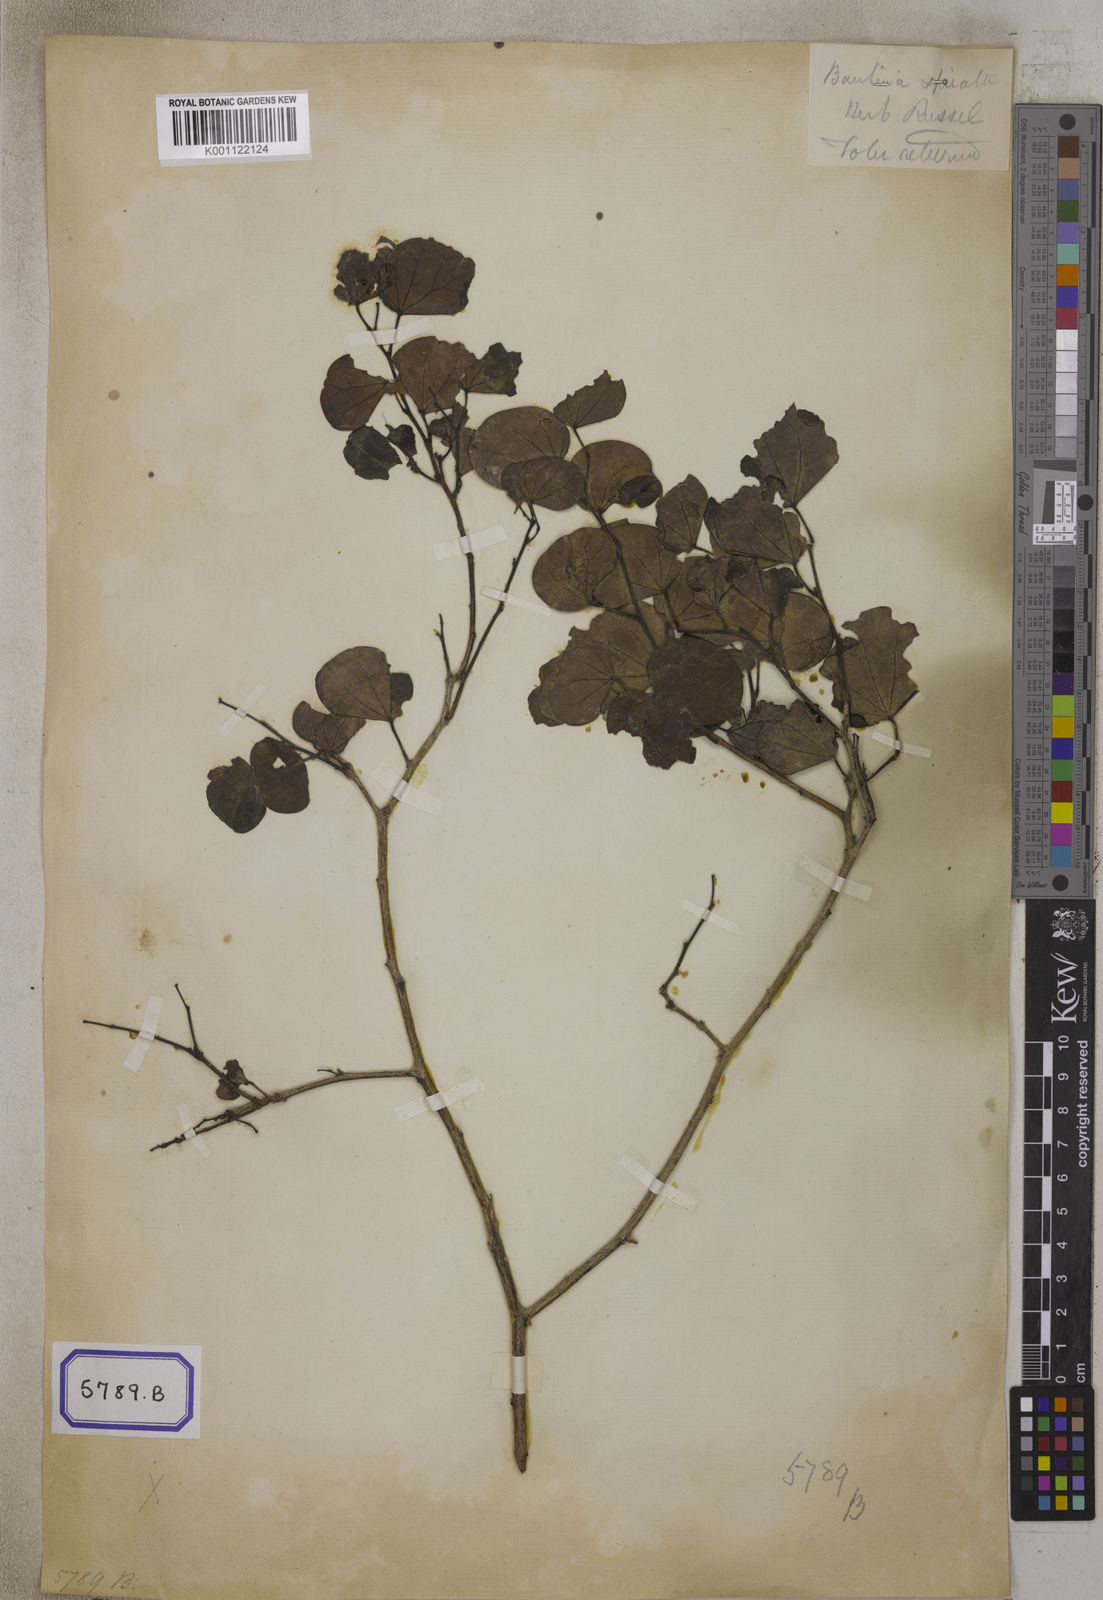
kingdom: Plantae
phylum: Tracheophyta
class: Magnoliopsida
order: Fabales
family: Fabaceae
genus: Bauhinia
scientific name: Bauhinia
